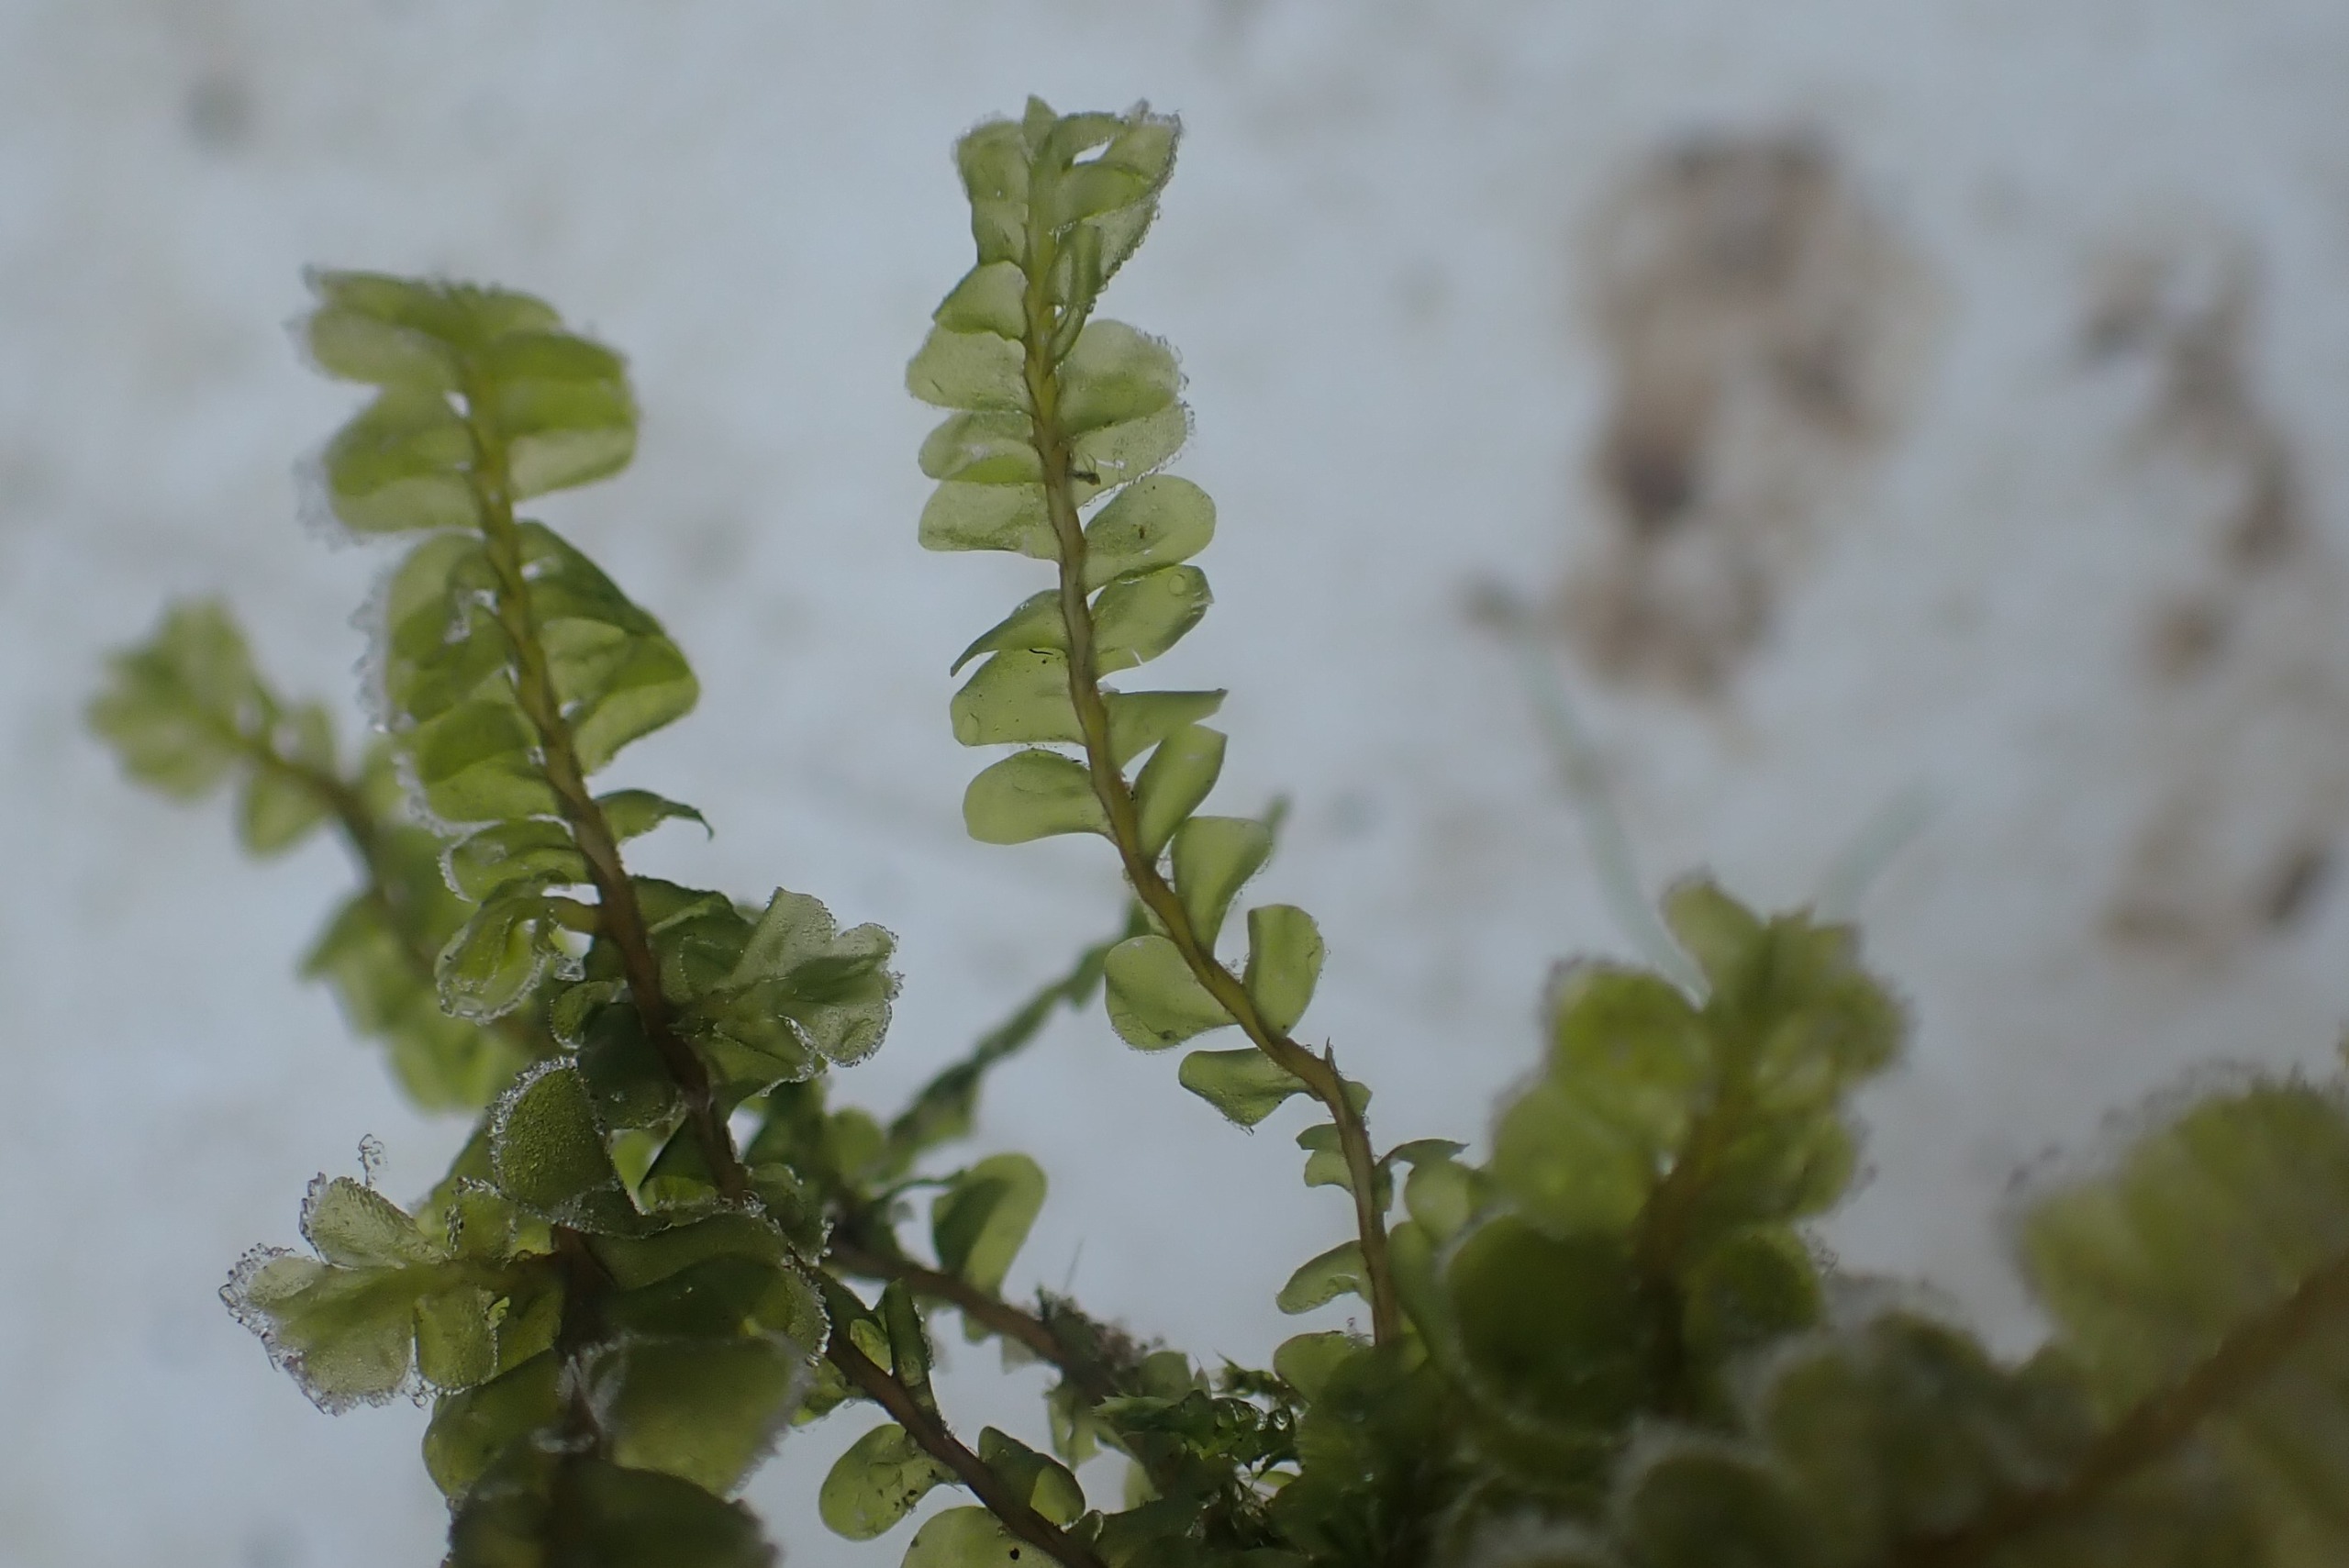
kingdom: Plantae
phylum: Marchantiophyta
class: Jungermanniopsida
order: Jungermanniales
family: Plagiochilaceae
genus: Plagiochila
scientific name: Plagiochila asplenioides
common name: Radeløv-hindeblad
